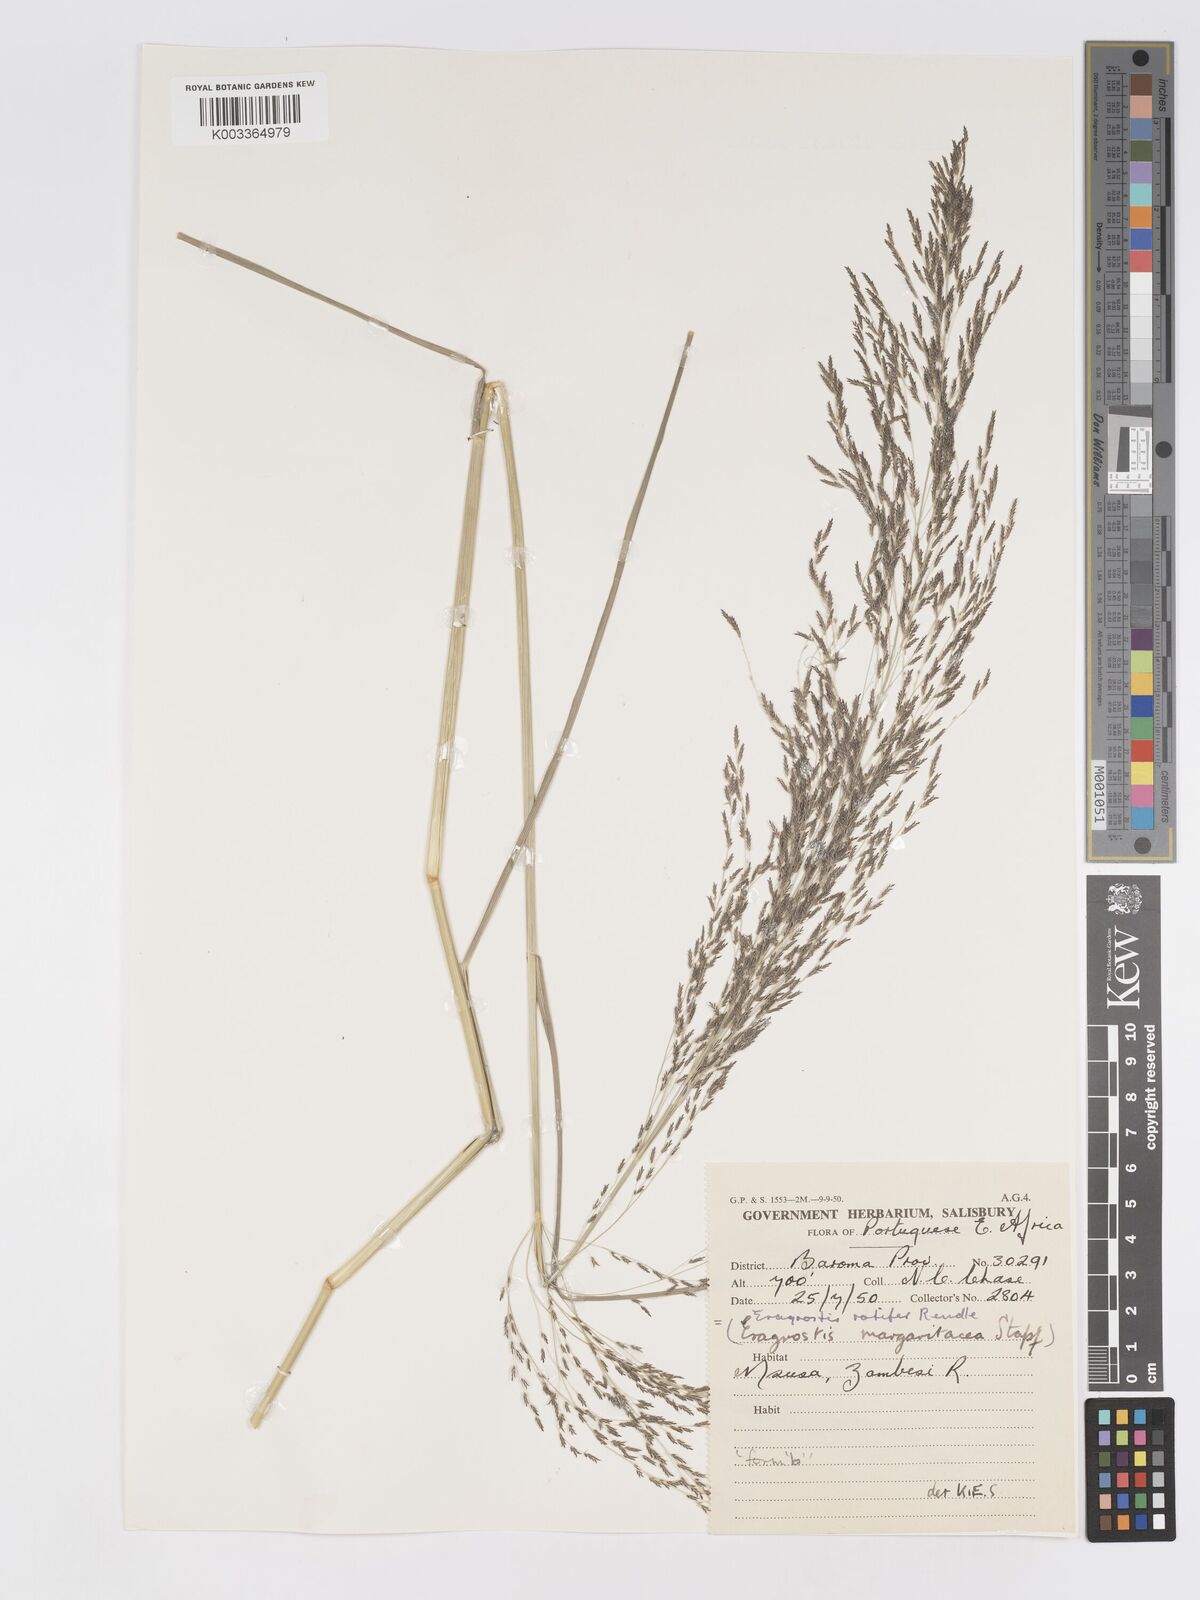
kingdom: Plantae
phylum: Tracheophyta
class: Liliopsida
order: Poales
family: Poaceae
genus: Eragrostis
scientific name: Eragrostis rotifer
